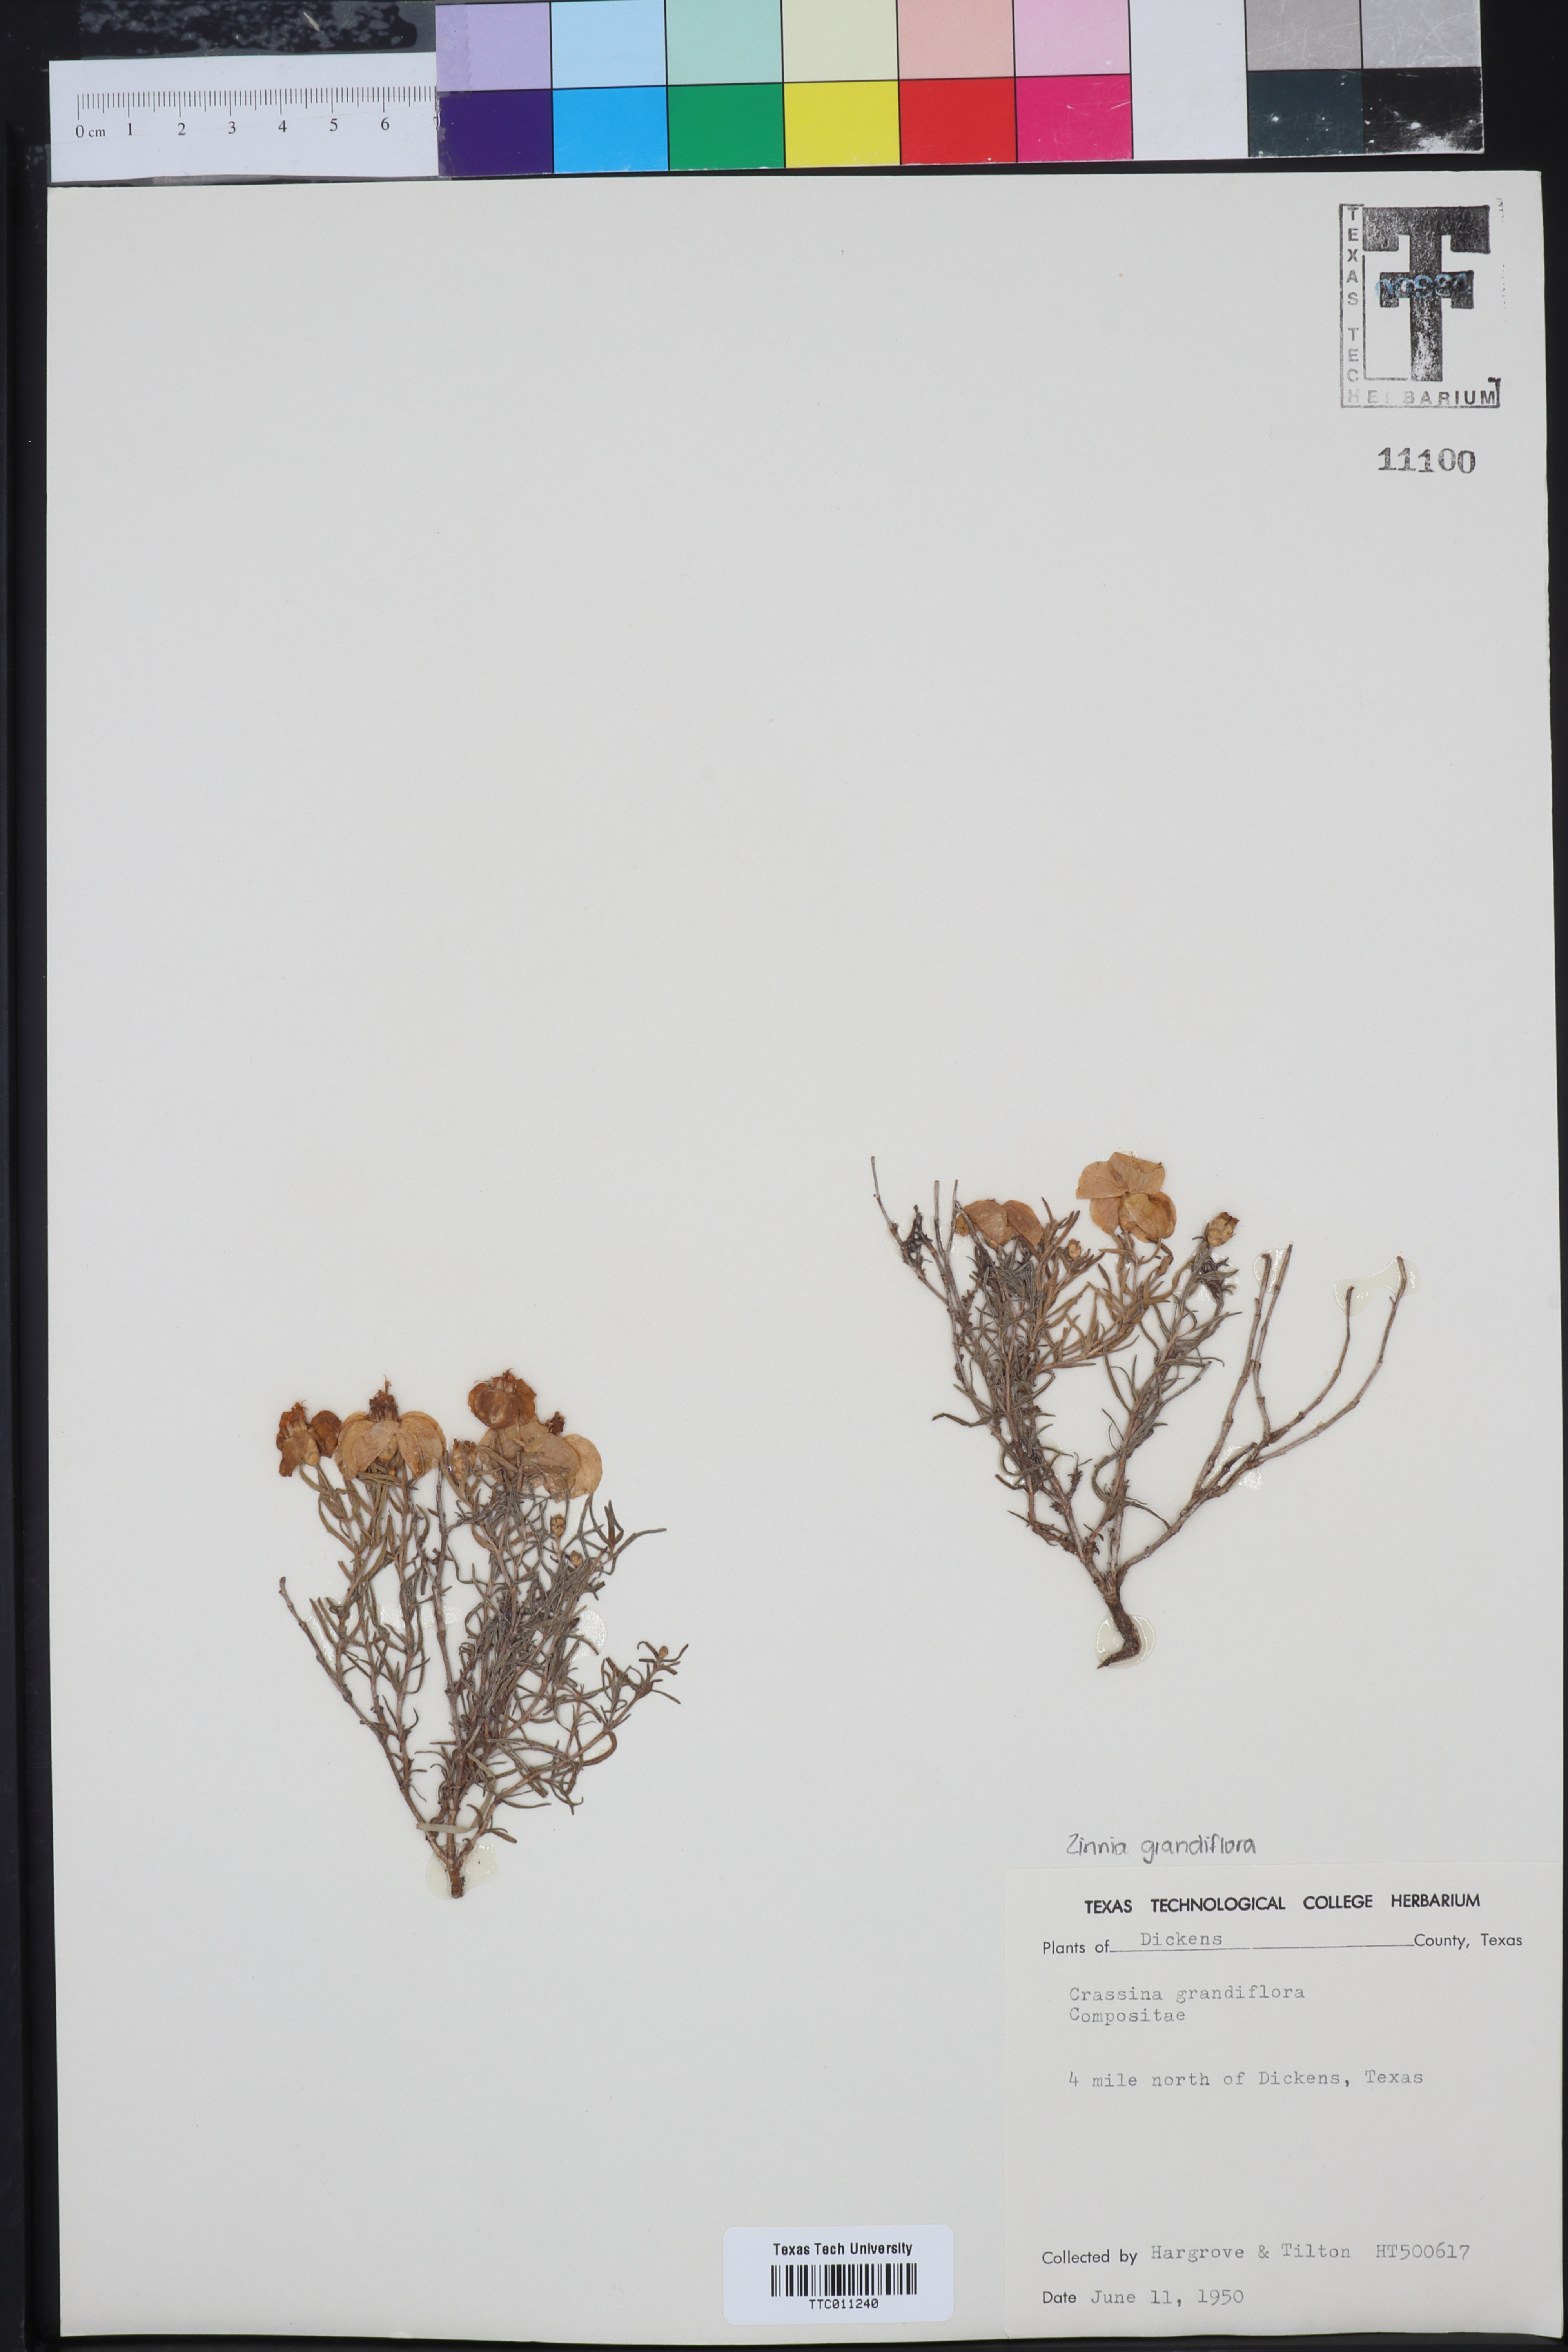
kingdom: Plantae
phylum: Tracheophyta
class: Magnoliopsida
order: Asterales
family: Asteraceae
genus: Zinnia
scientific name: Zinnia grandiflora
